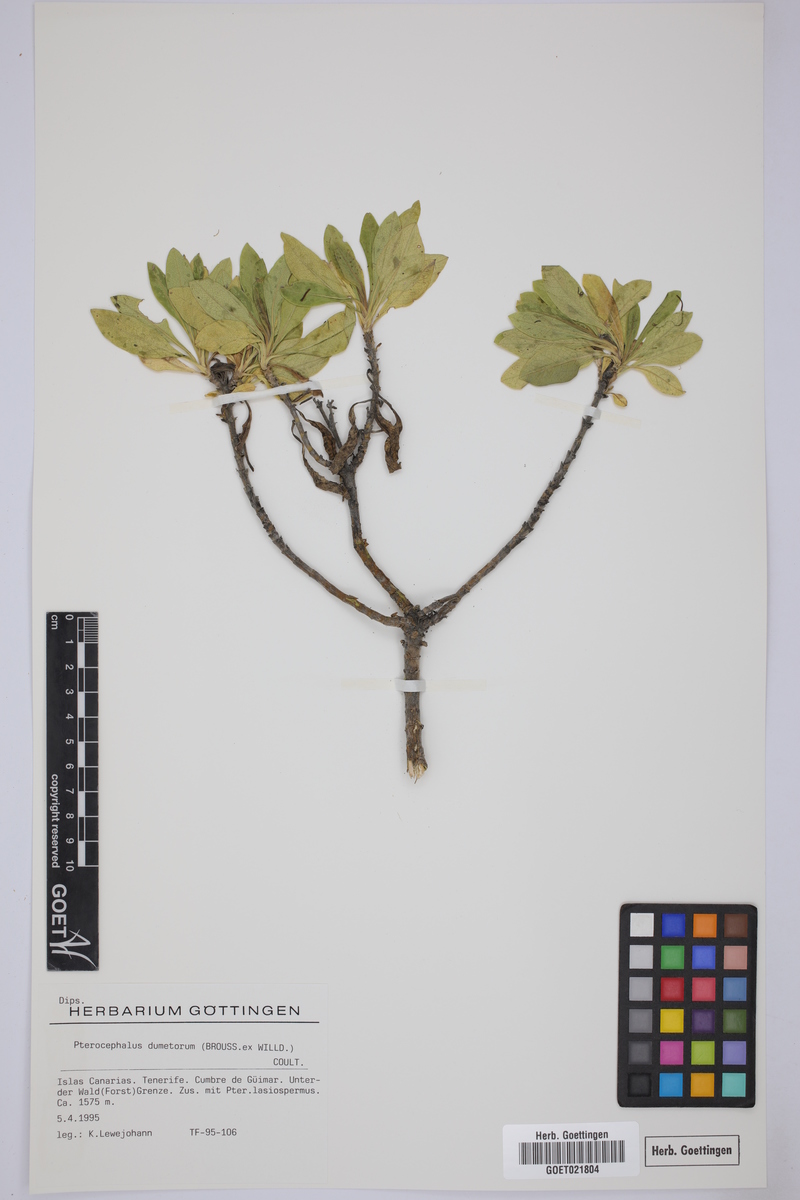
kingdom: Plantae
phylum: Tracheophyta
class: Magnoliopsida
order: Dipsacales
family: Caprifoliaceae
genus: Pterocephalus
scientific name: Pterocephalus dumetorus
